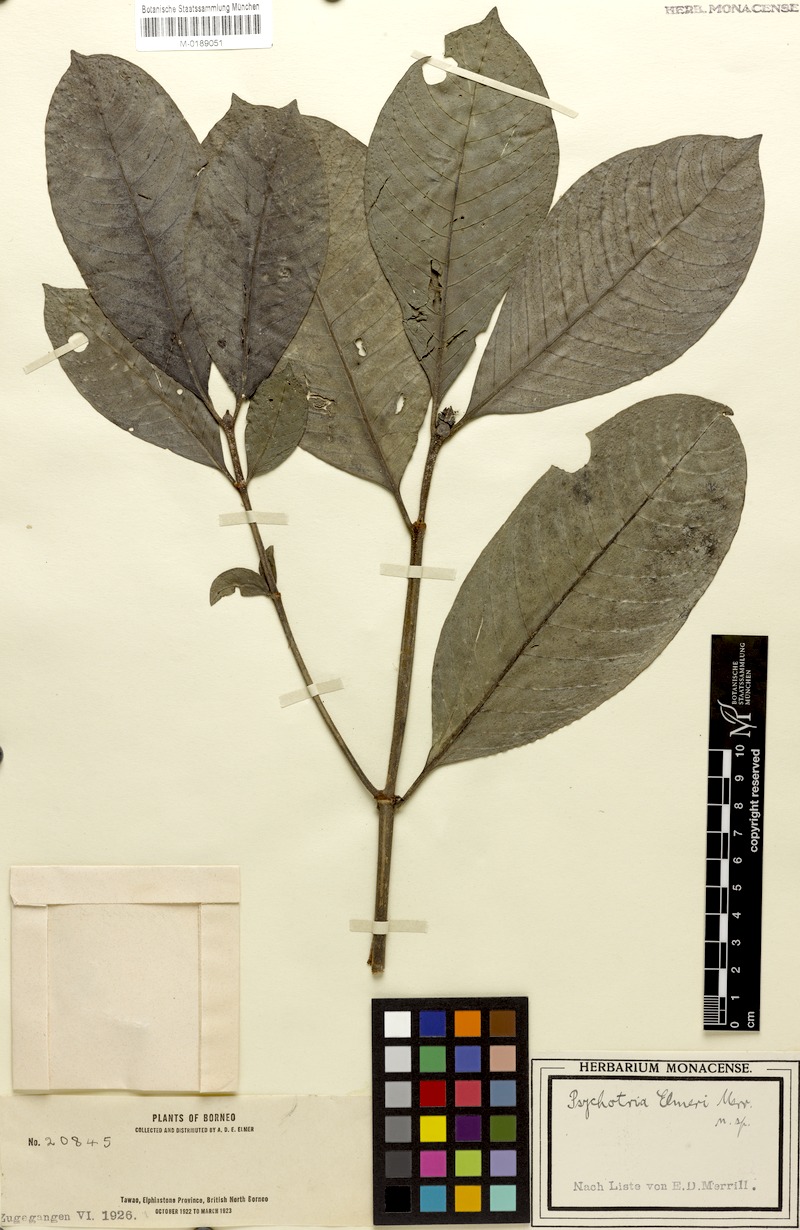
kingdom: Plantae
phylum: Tracheophyta
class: Magnoliopsida
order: Gentianales
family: Rubiaceae
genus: Psychotria
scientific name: Psychotria elmeri
